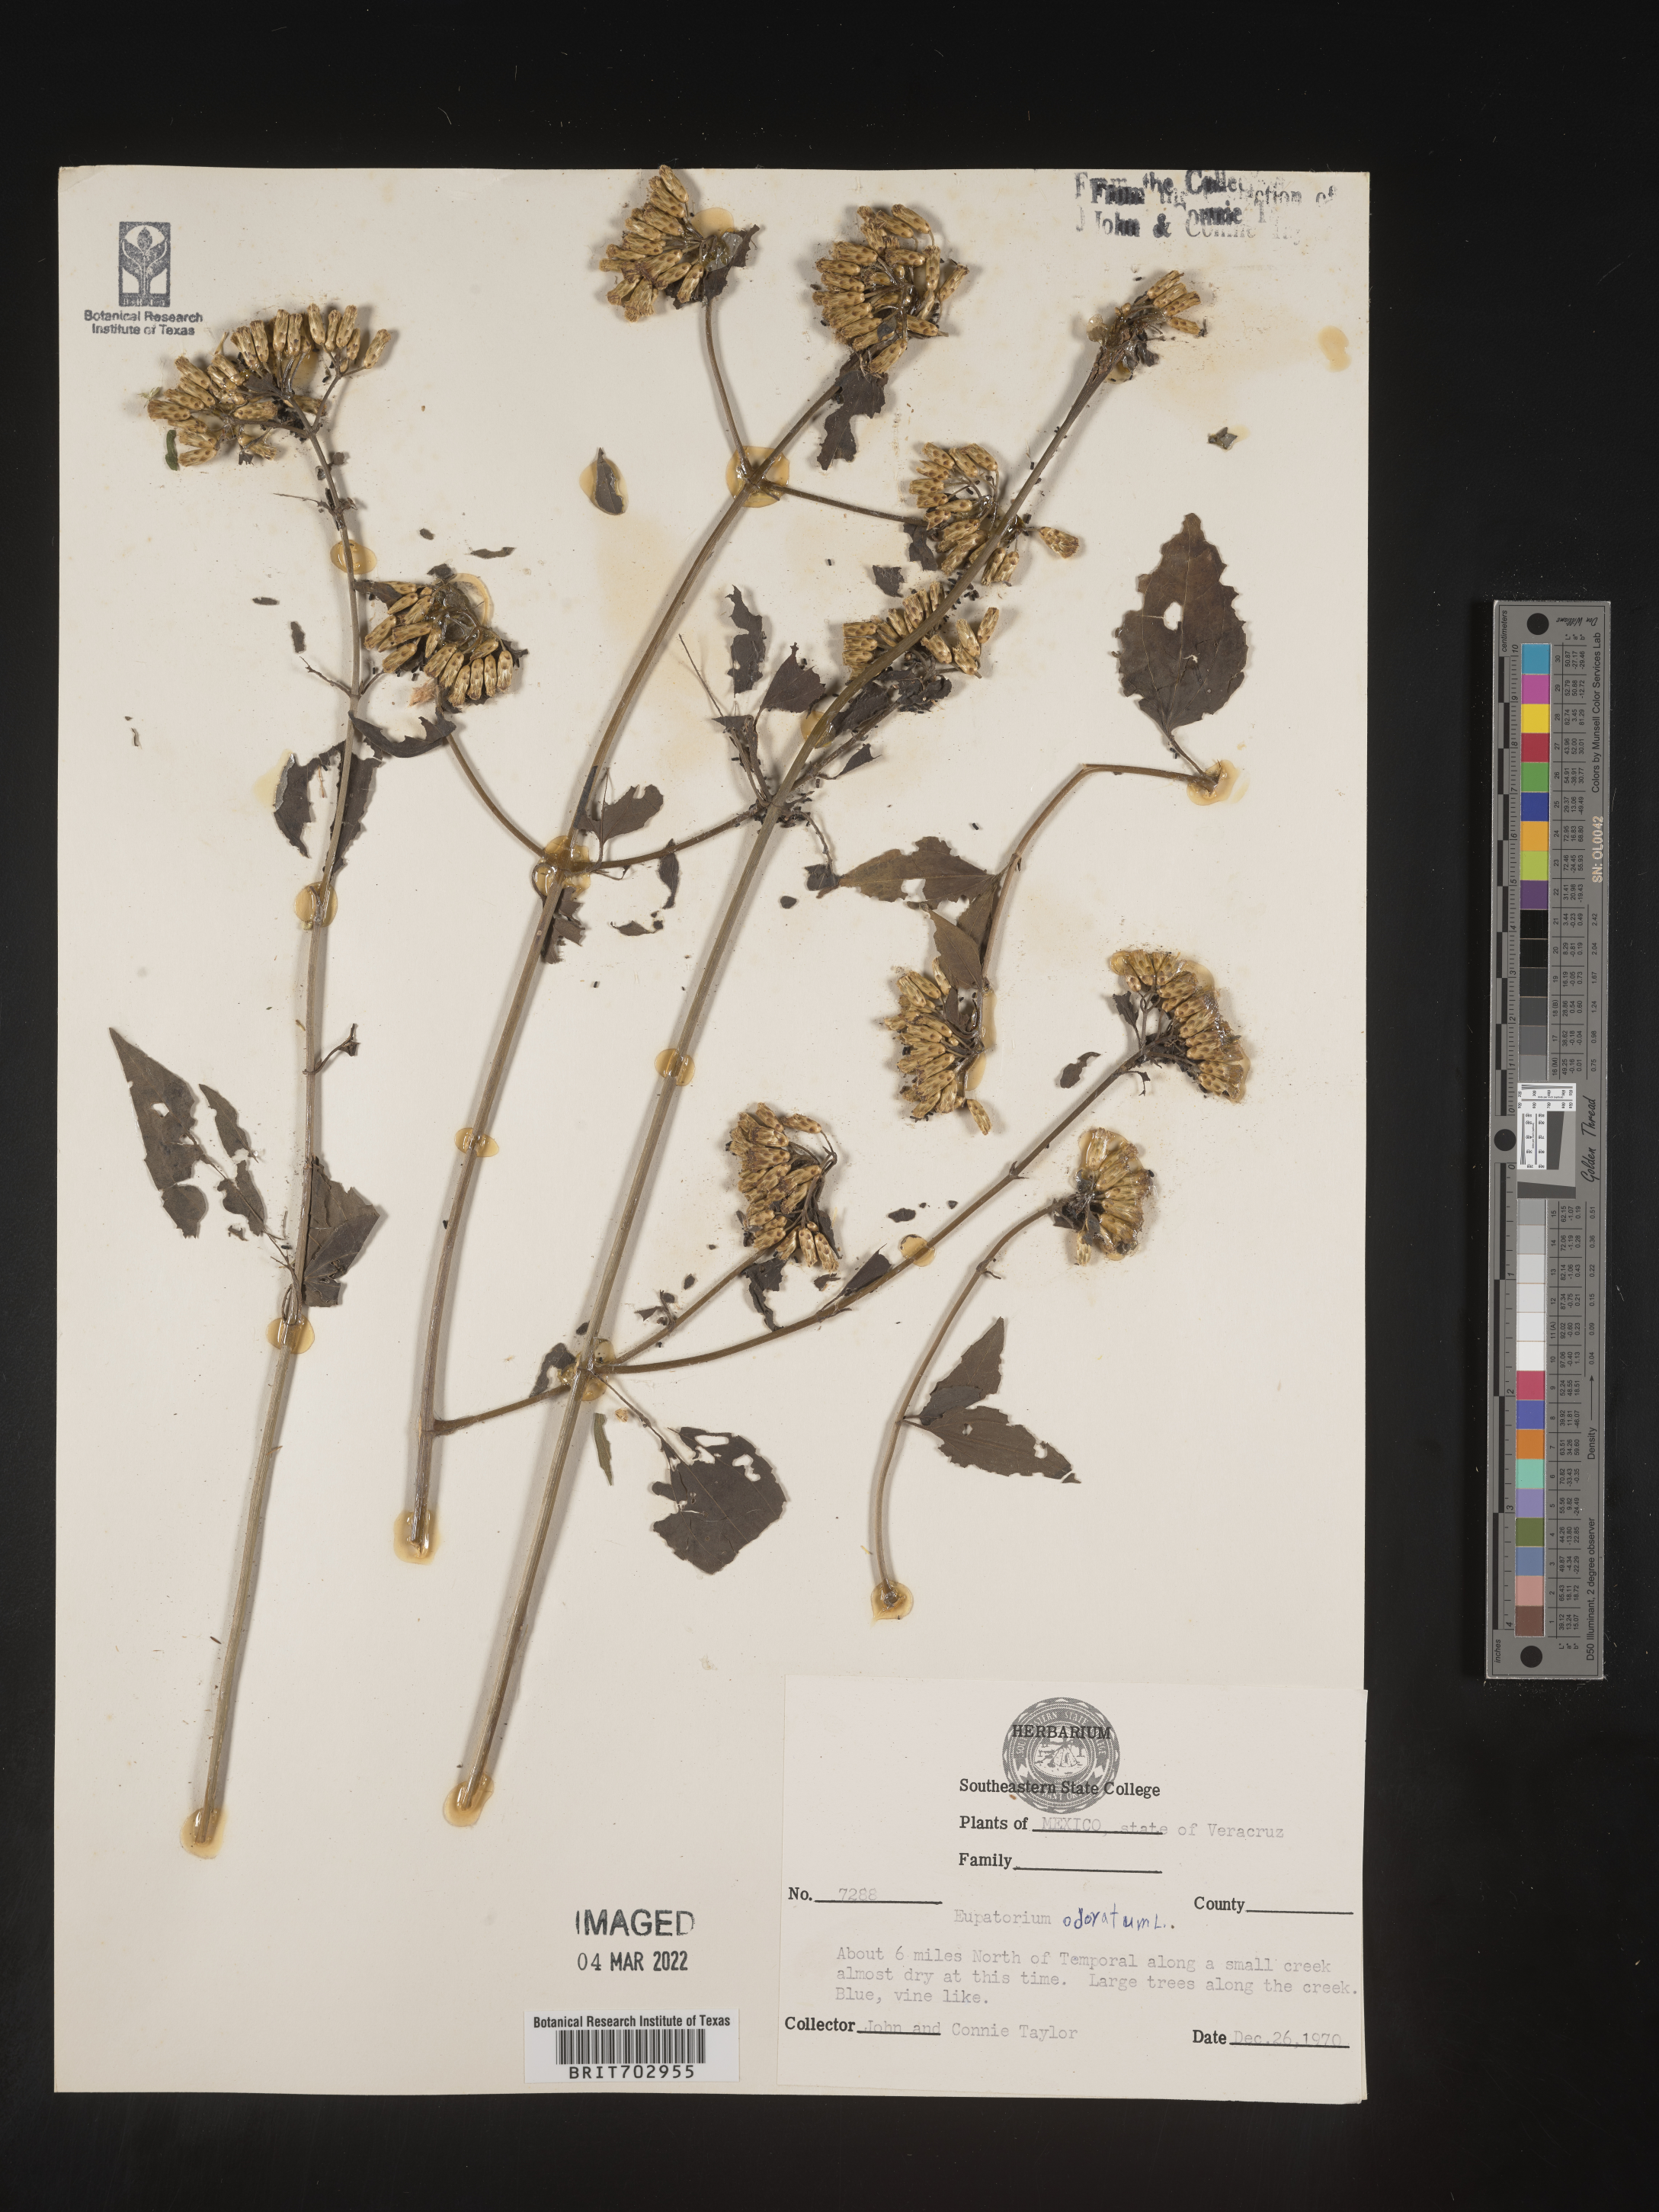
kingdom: Plantae
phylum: Tracheophyta
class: Magnoliopsida
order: Asterales
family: Asteraceae
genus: Eupatorium
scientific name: Eupatorium
